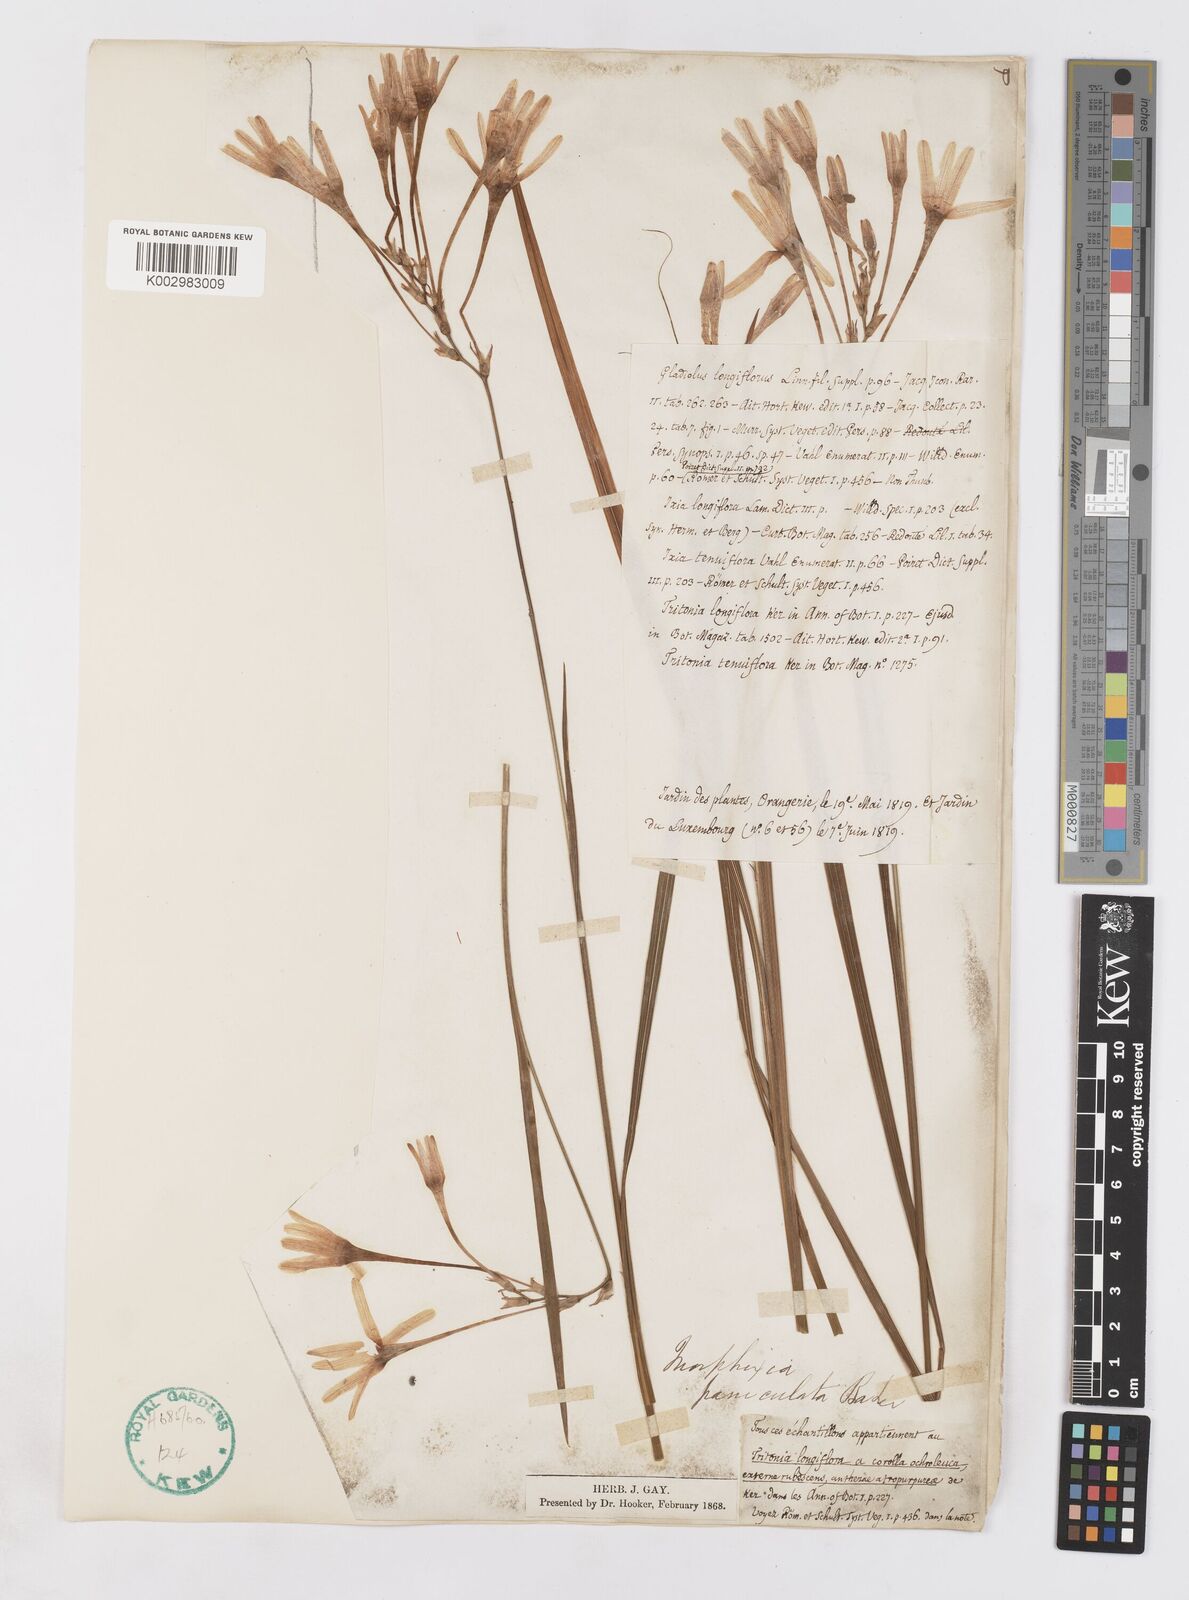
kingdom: Plantae
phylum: Tracheophyta
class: Liliopsida
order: Asparagales
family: Iridaceae
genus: Ixia
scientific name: Ixia paniculata
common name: Tubular corn-lily
